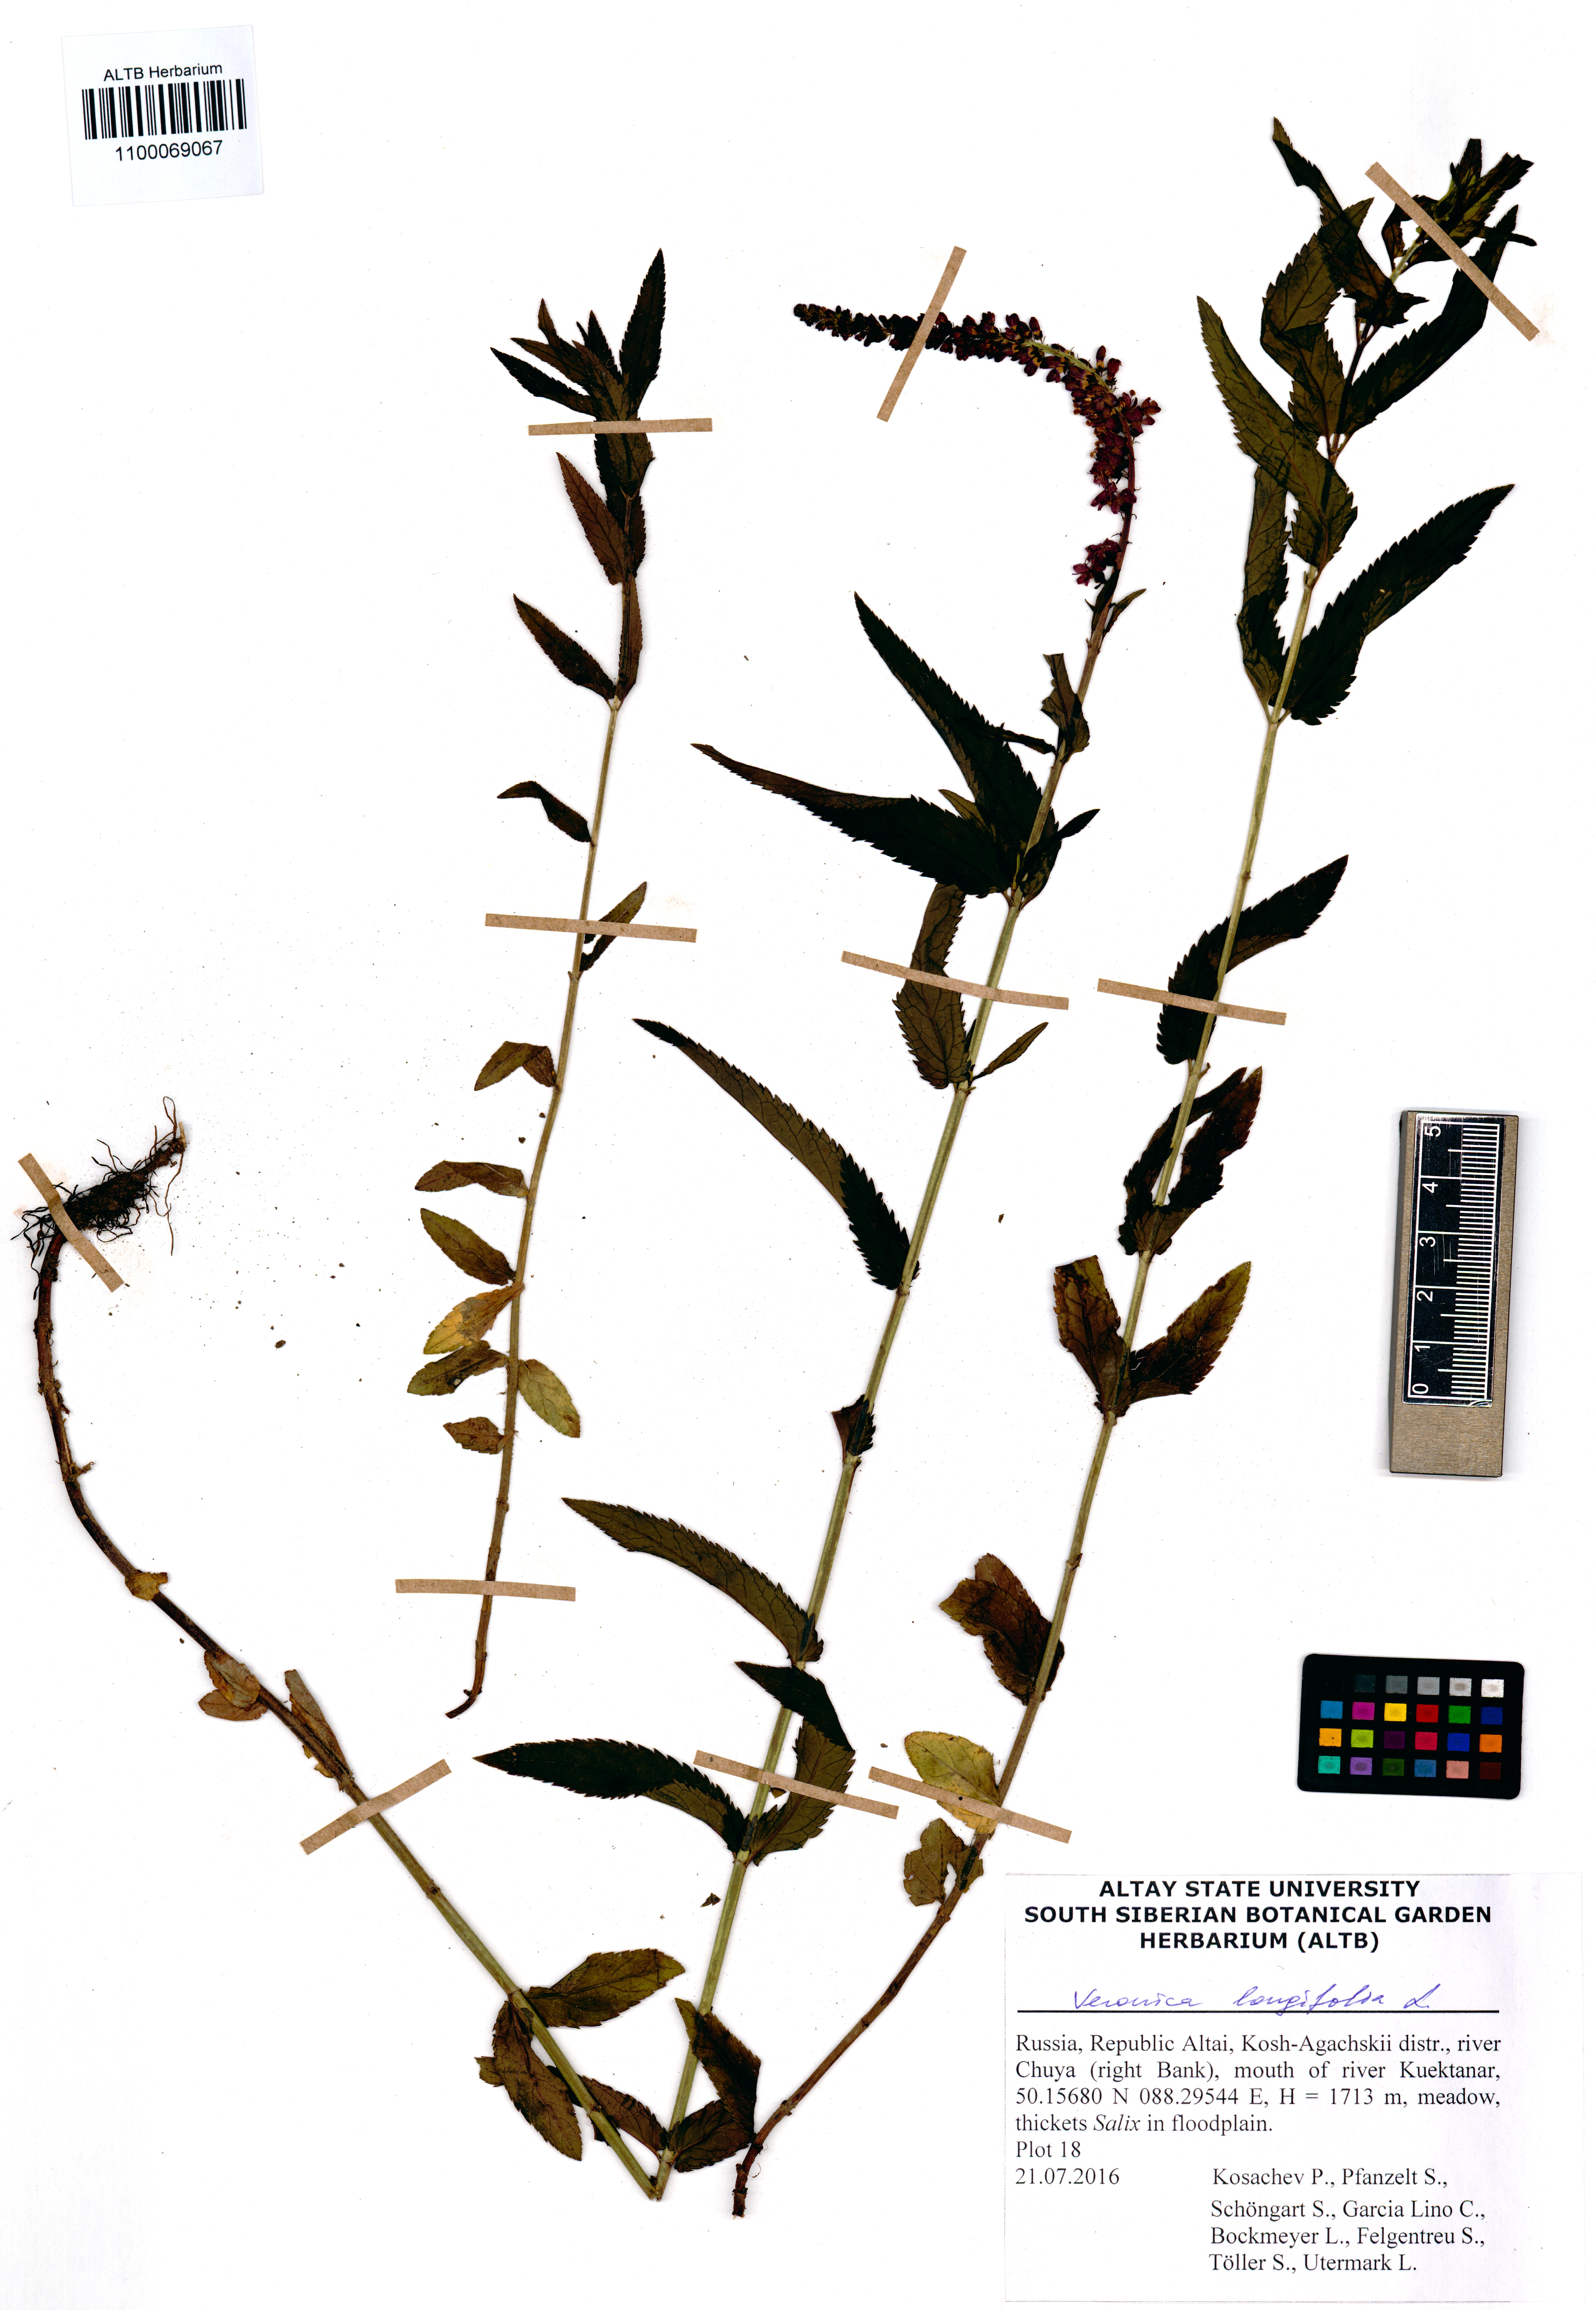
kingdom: Plantae
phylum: Tracheophyta
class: Magnoliopsida
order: Lamiales
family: Plantaginaceae
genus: Veronica
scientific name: Veronica longifolia
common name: Garden speedwell
